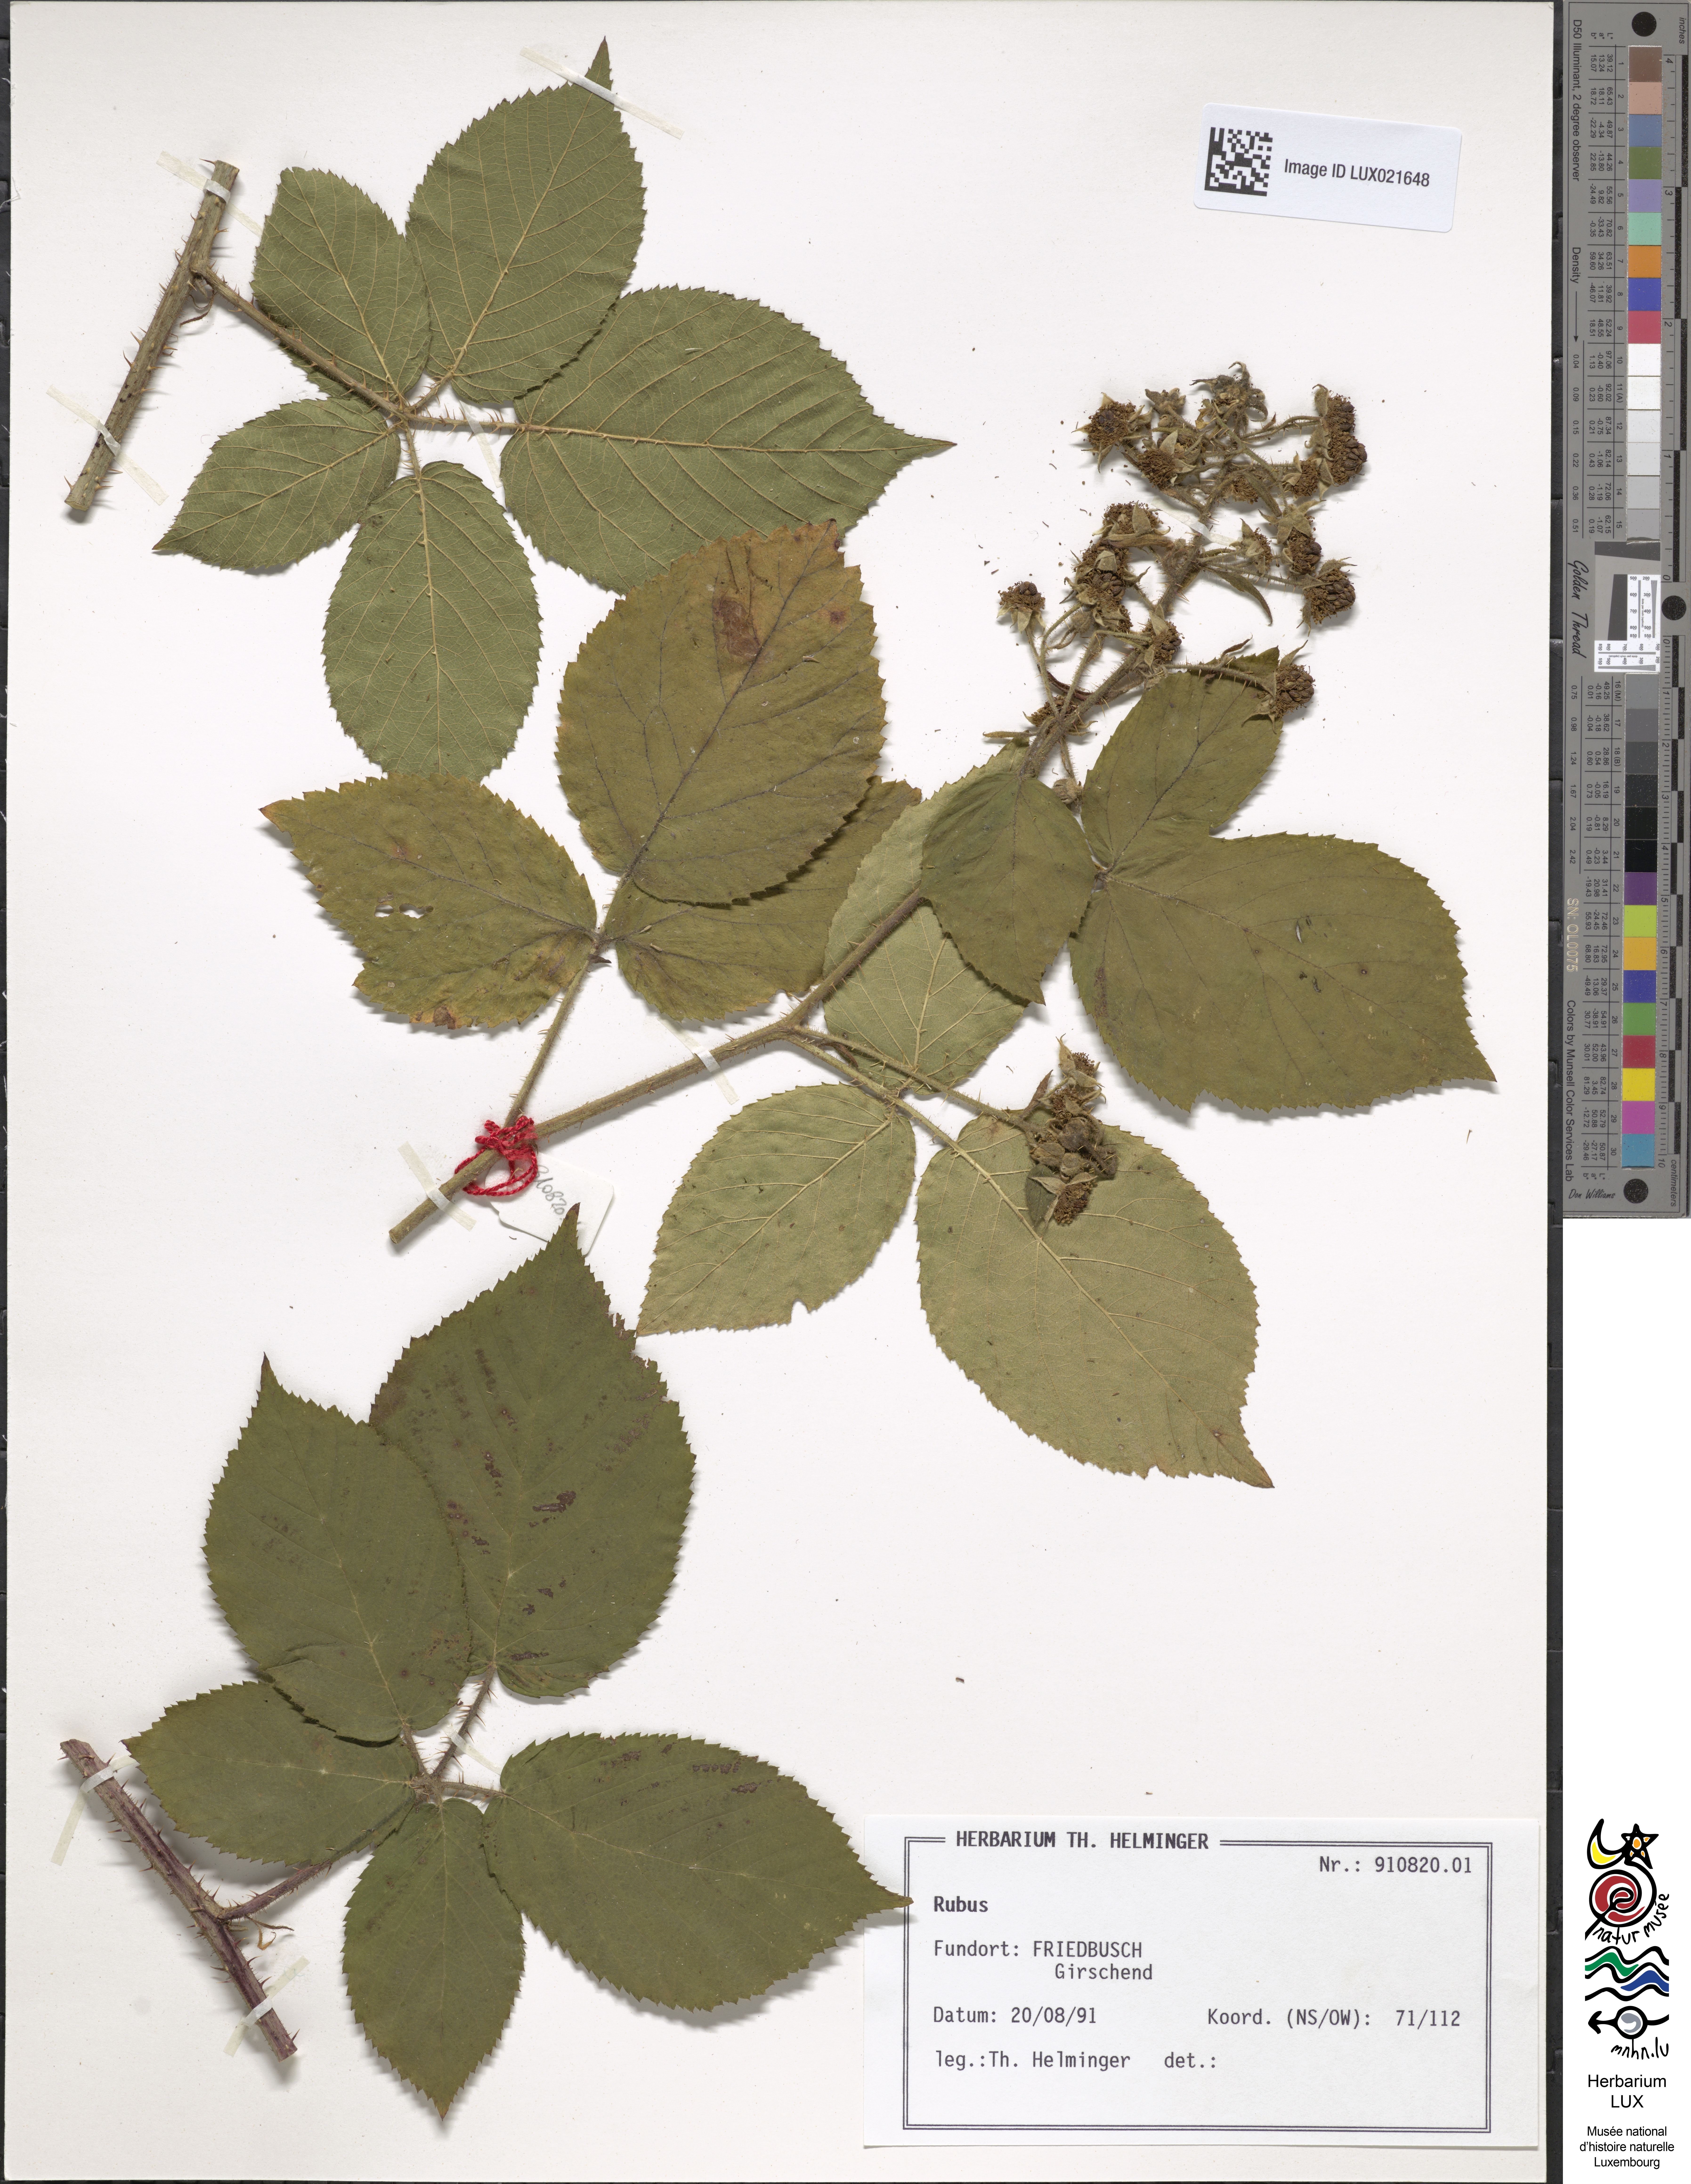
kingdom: Plantae
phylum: Tracheophyta
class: Magnoliopsida
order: Rosales
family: Rosaceae
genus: Rubus
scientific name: Rubus
